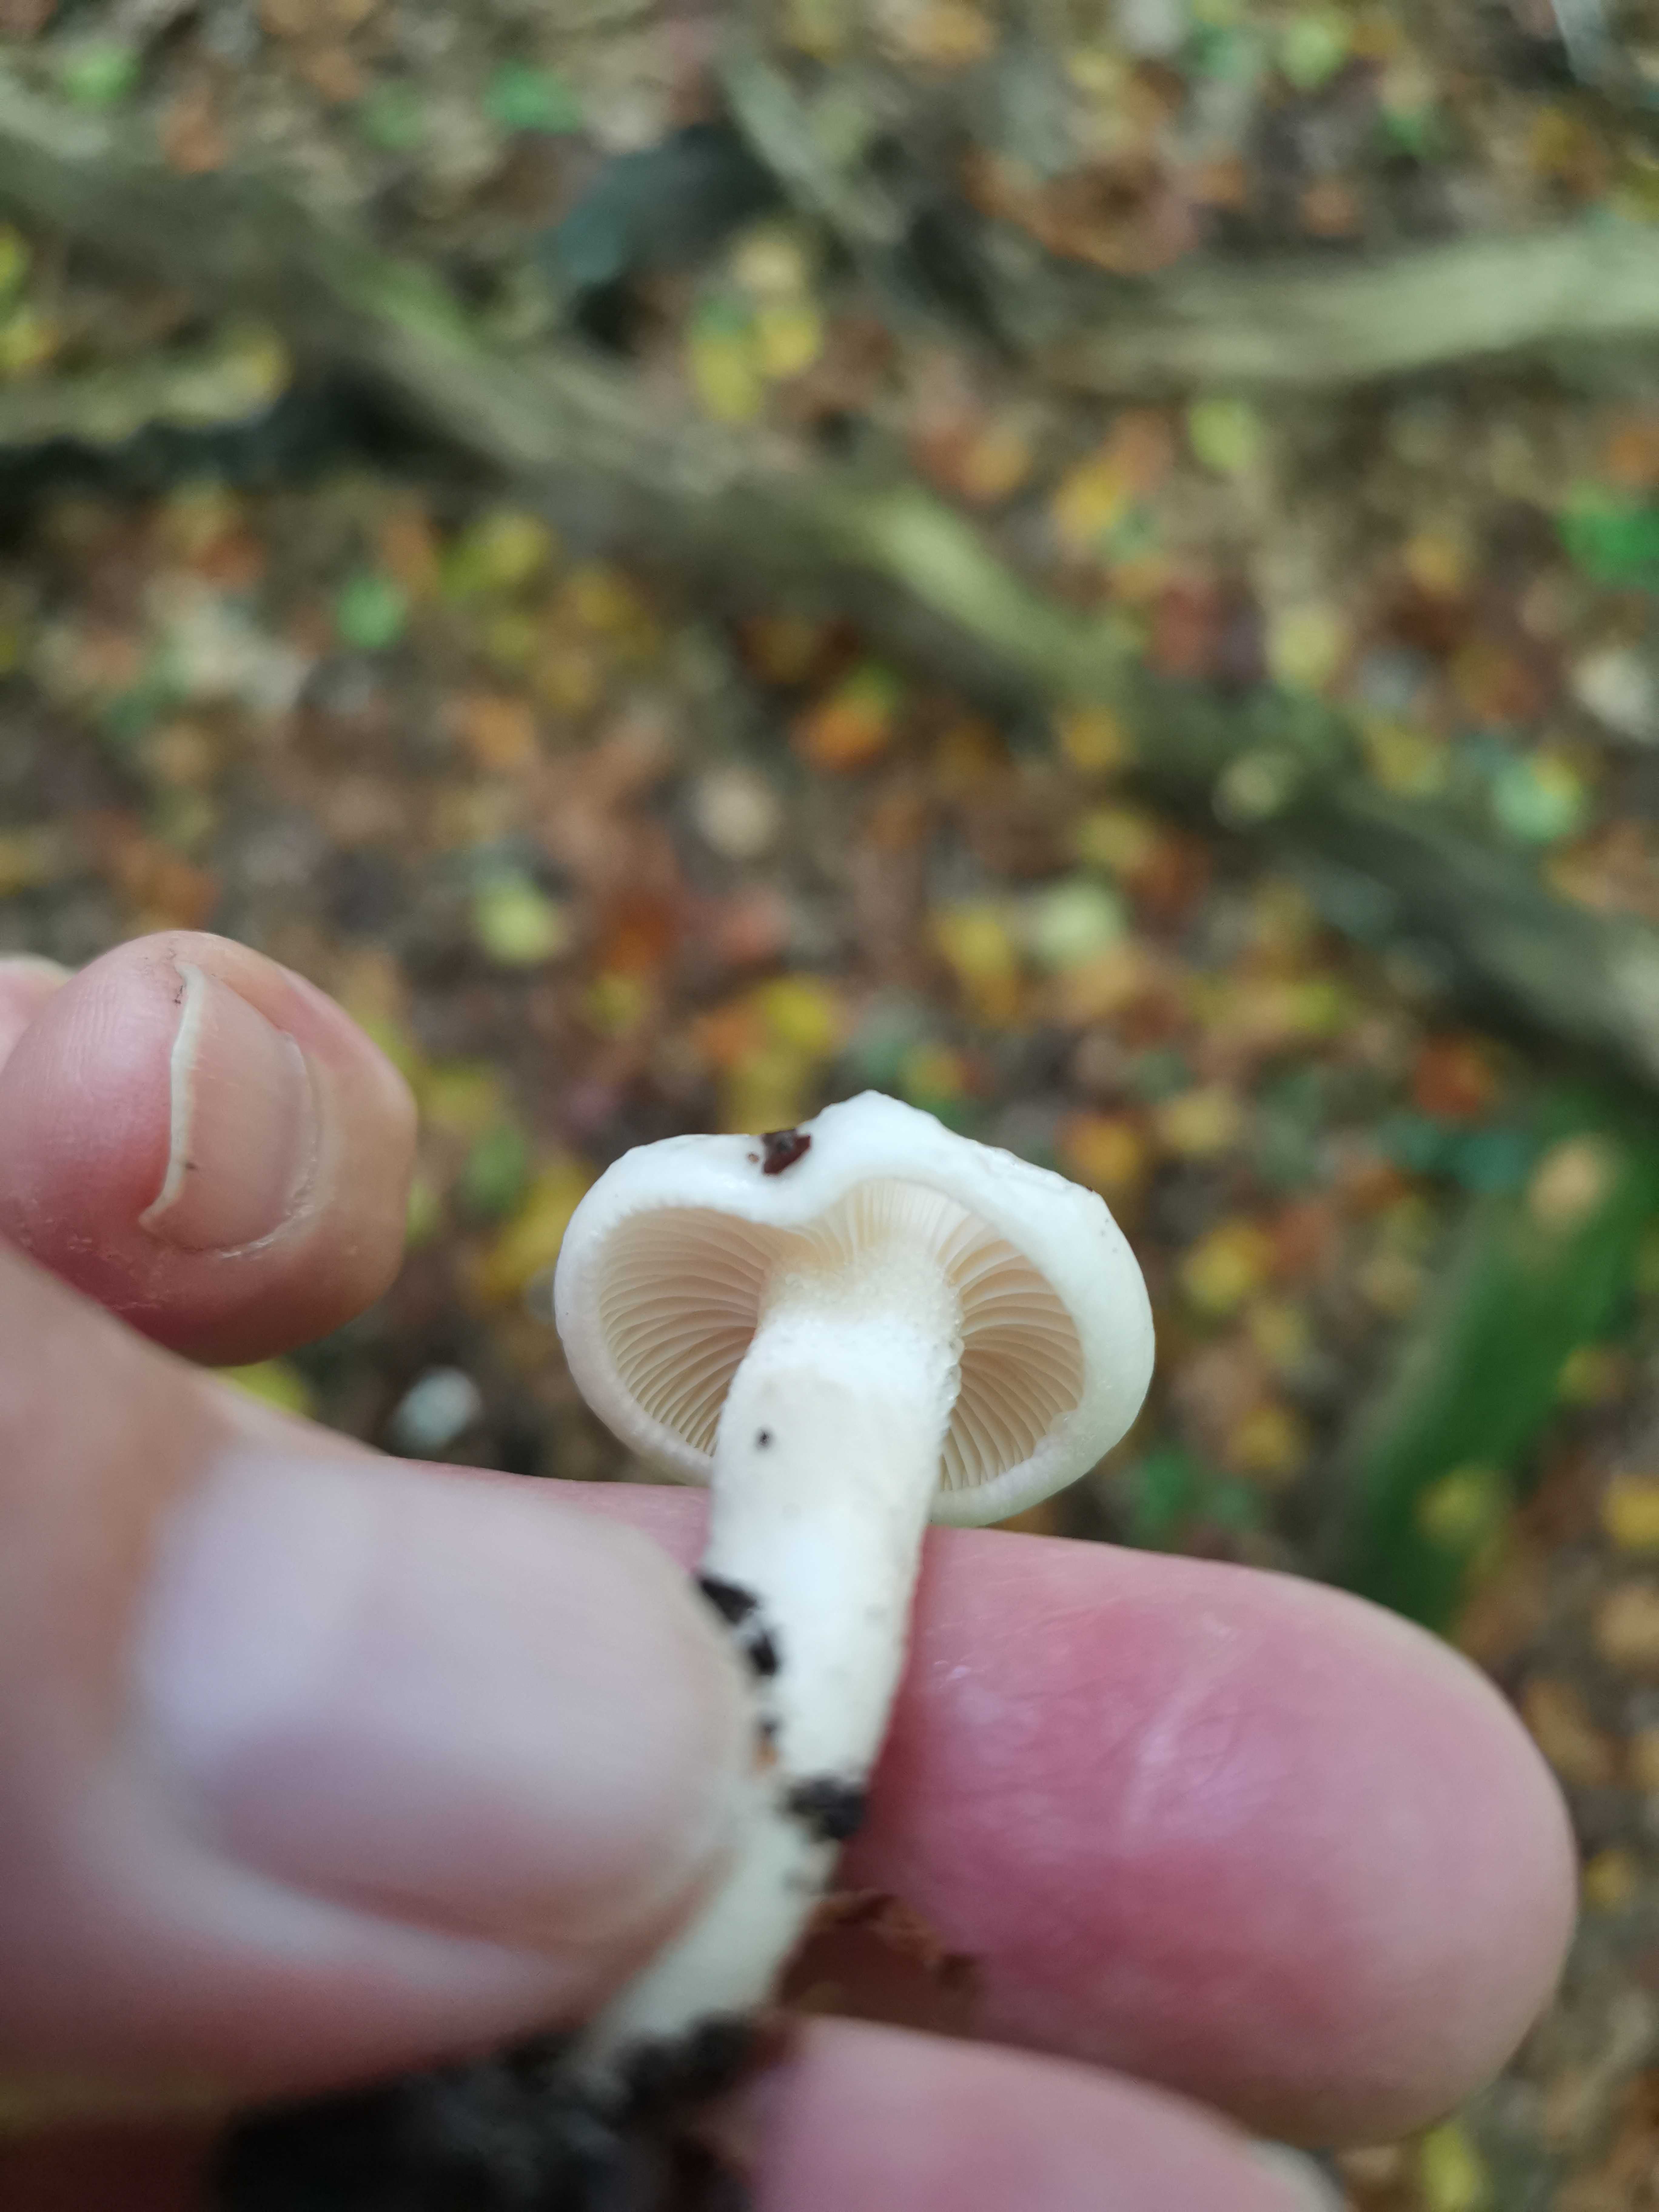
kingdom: Fungi
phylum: Basidiomycota
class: Agaricomycetes
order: Agaricales
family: Hygrophoraceae
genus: Hygrophorus
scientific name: Hygrophorus eburneus
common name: elfenbens-sneglehat
